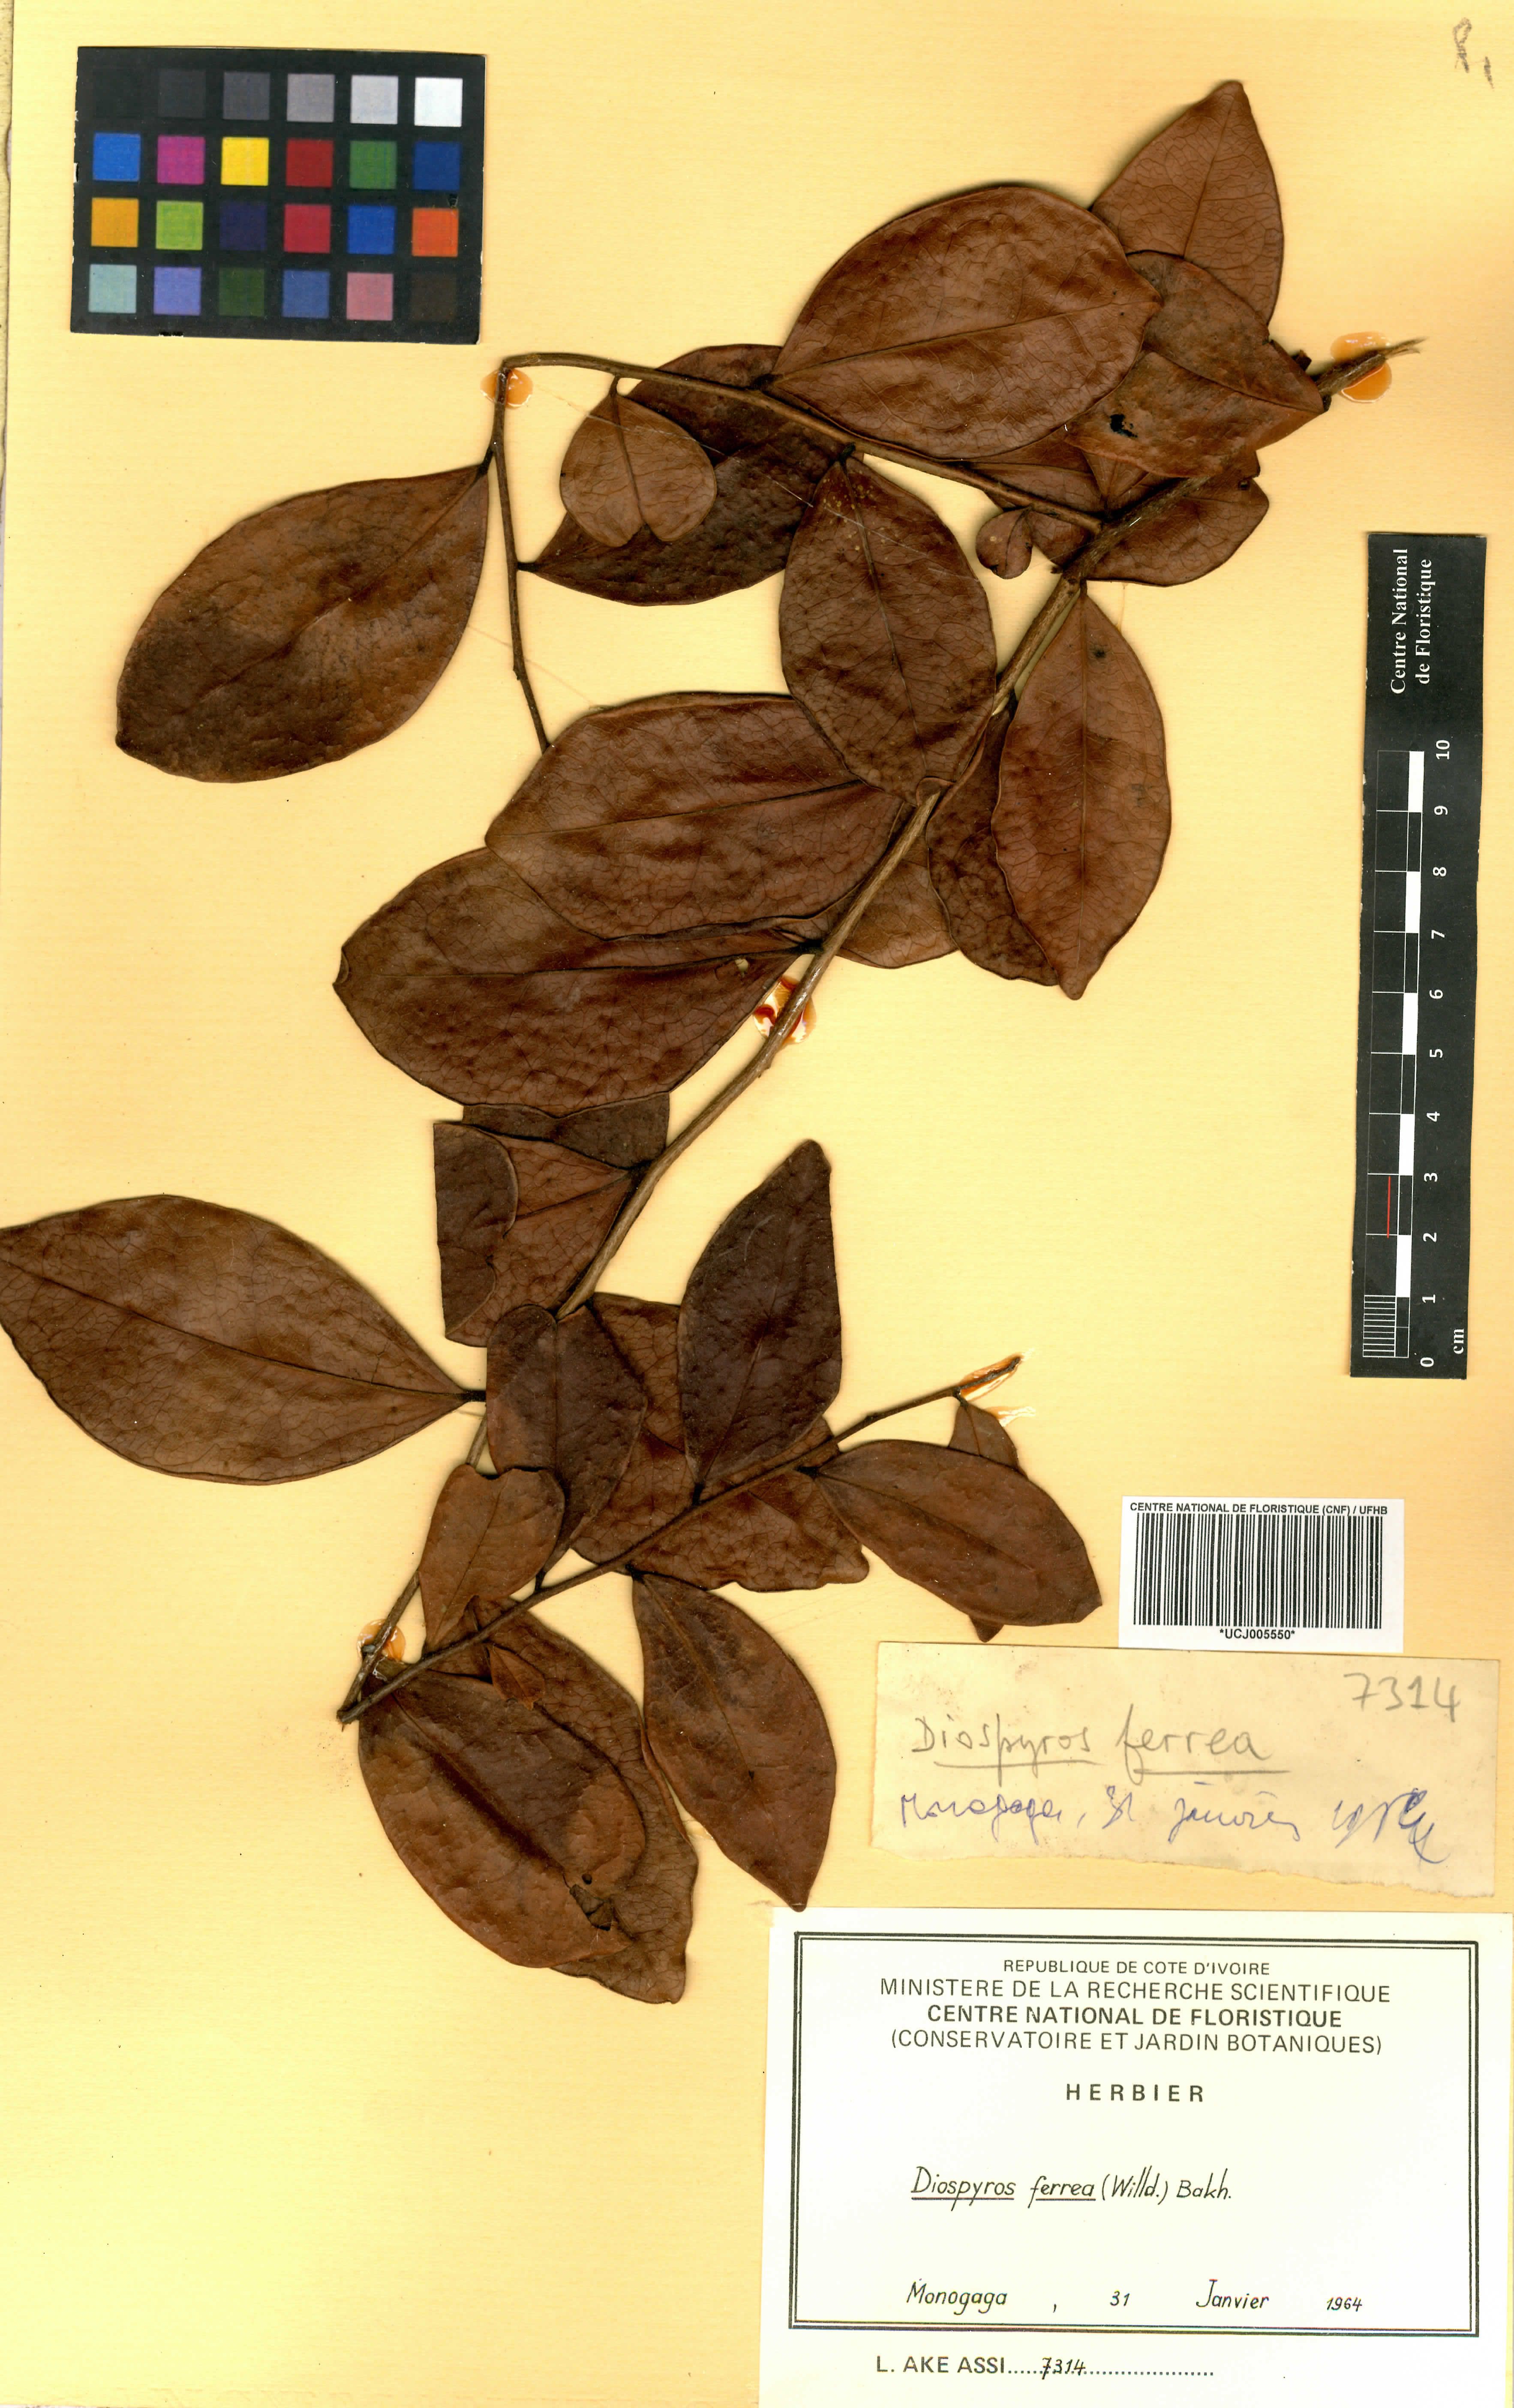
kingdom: Plantae
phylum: Tracheophyta
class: Magnoliopsida
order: Ericales
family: Ebenaceae
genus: Diospyros
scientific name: Diospyros ferrea
